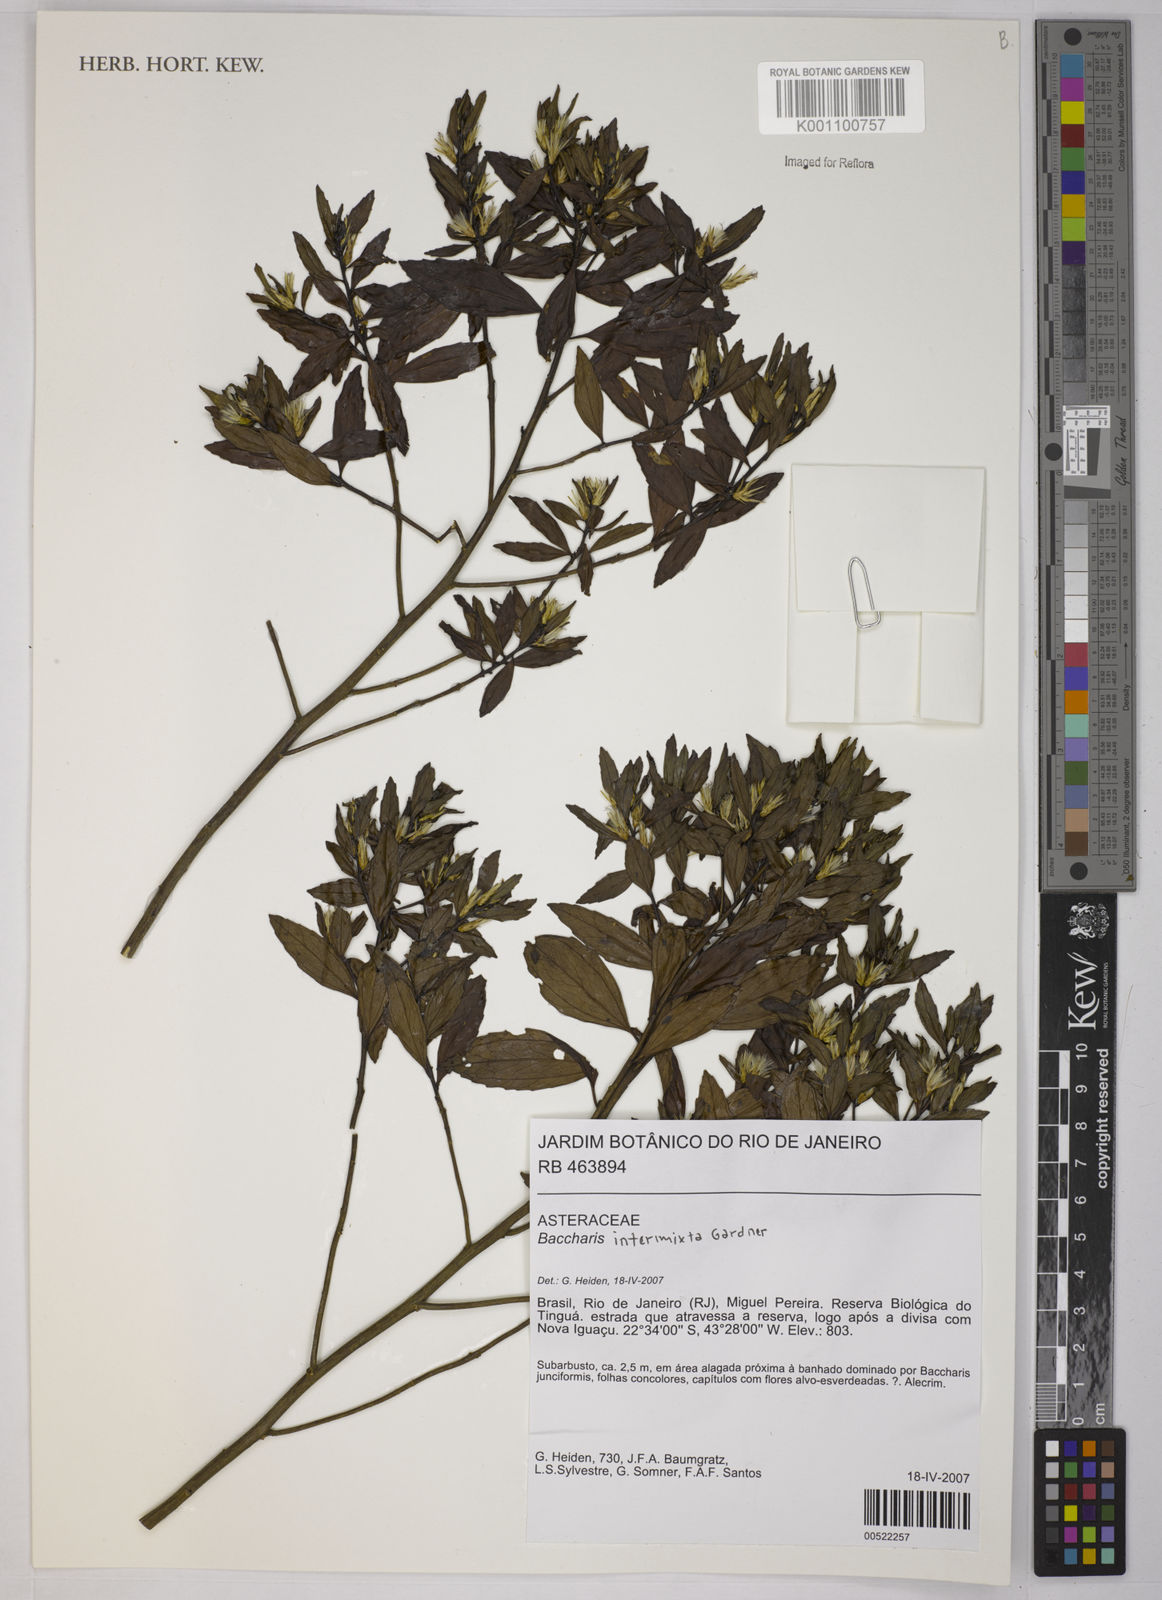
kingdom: Plantae
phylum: Tracheophyta
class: Magnoliopsida
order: Asterales
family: Asteraceae
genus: Baccharis
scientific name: Baccharis intermixta
